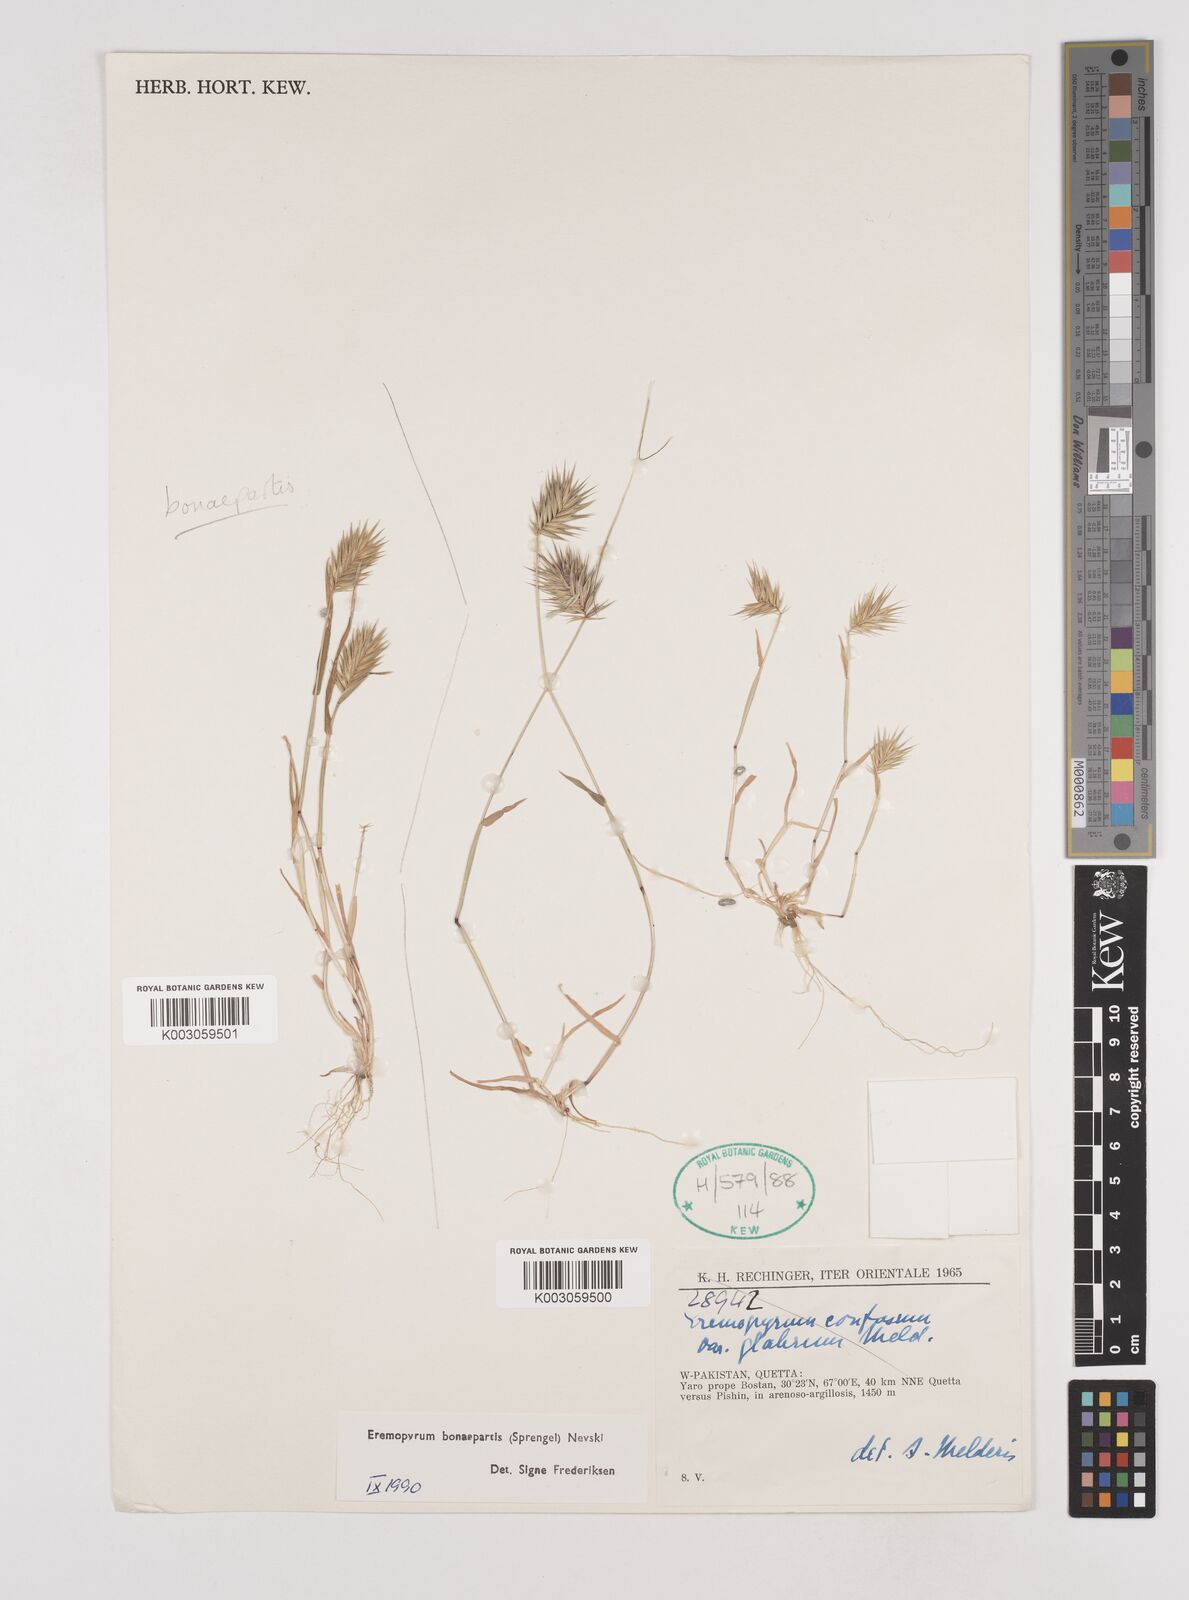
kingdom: Plantae
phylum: Tracheophyta
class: Liliopsida
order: Poales
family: Poaceae
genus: Eremopyrum
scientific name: Eremopyrum bonaepartis
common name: Tapertip false wheatgrass
